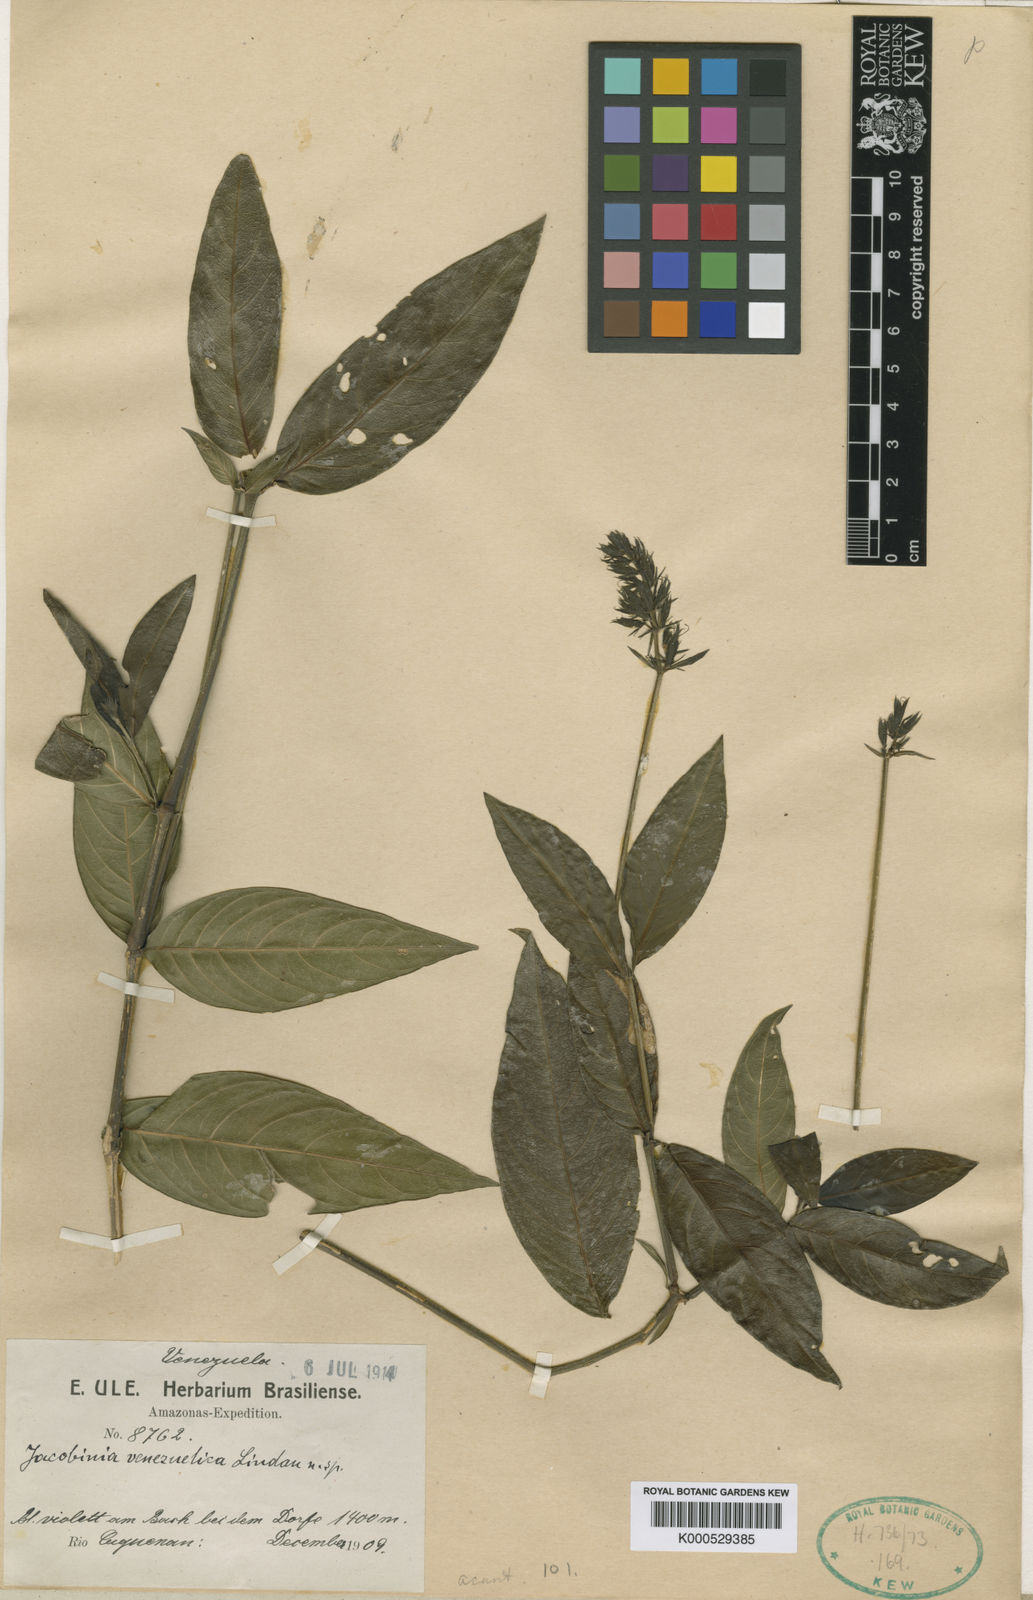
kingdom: Plantae
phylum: Tracheophyta
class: Magnoliopsida
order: Lamiales
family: Acanthaceae
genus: Dianthera
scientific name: Dianthera guianensis
